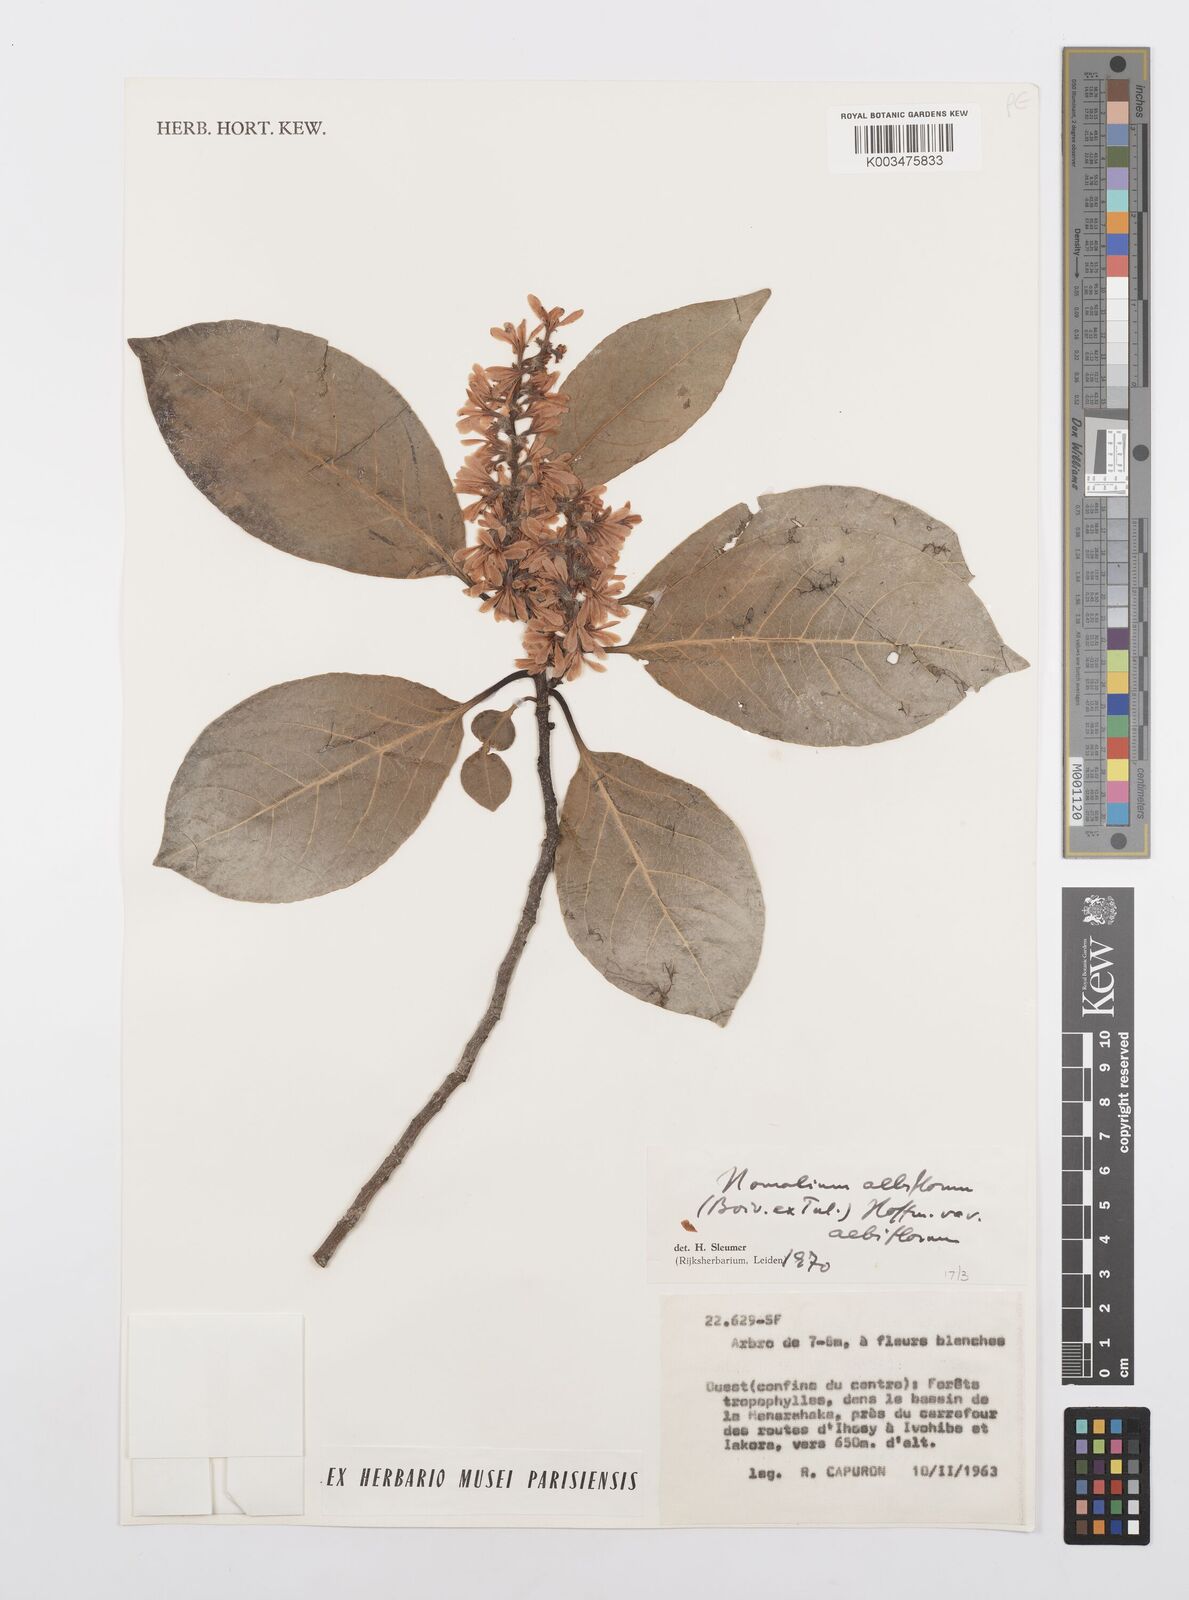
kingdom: Plantae
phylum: Tracheophyta
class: Magnoliopsida
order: Malpighiales
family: Salicaceae
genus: Homalium
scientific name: Homalium albiflorum
